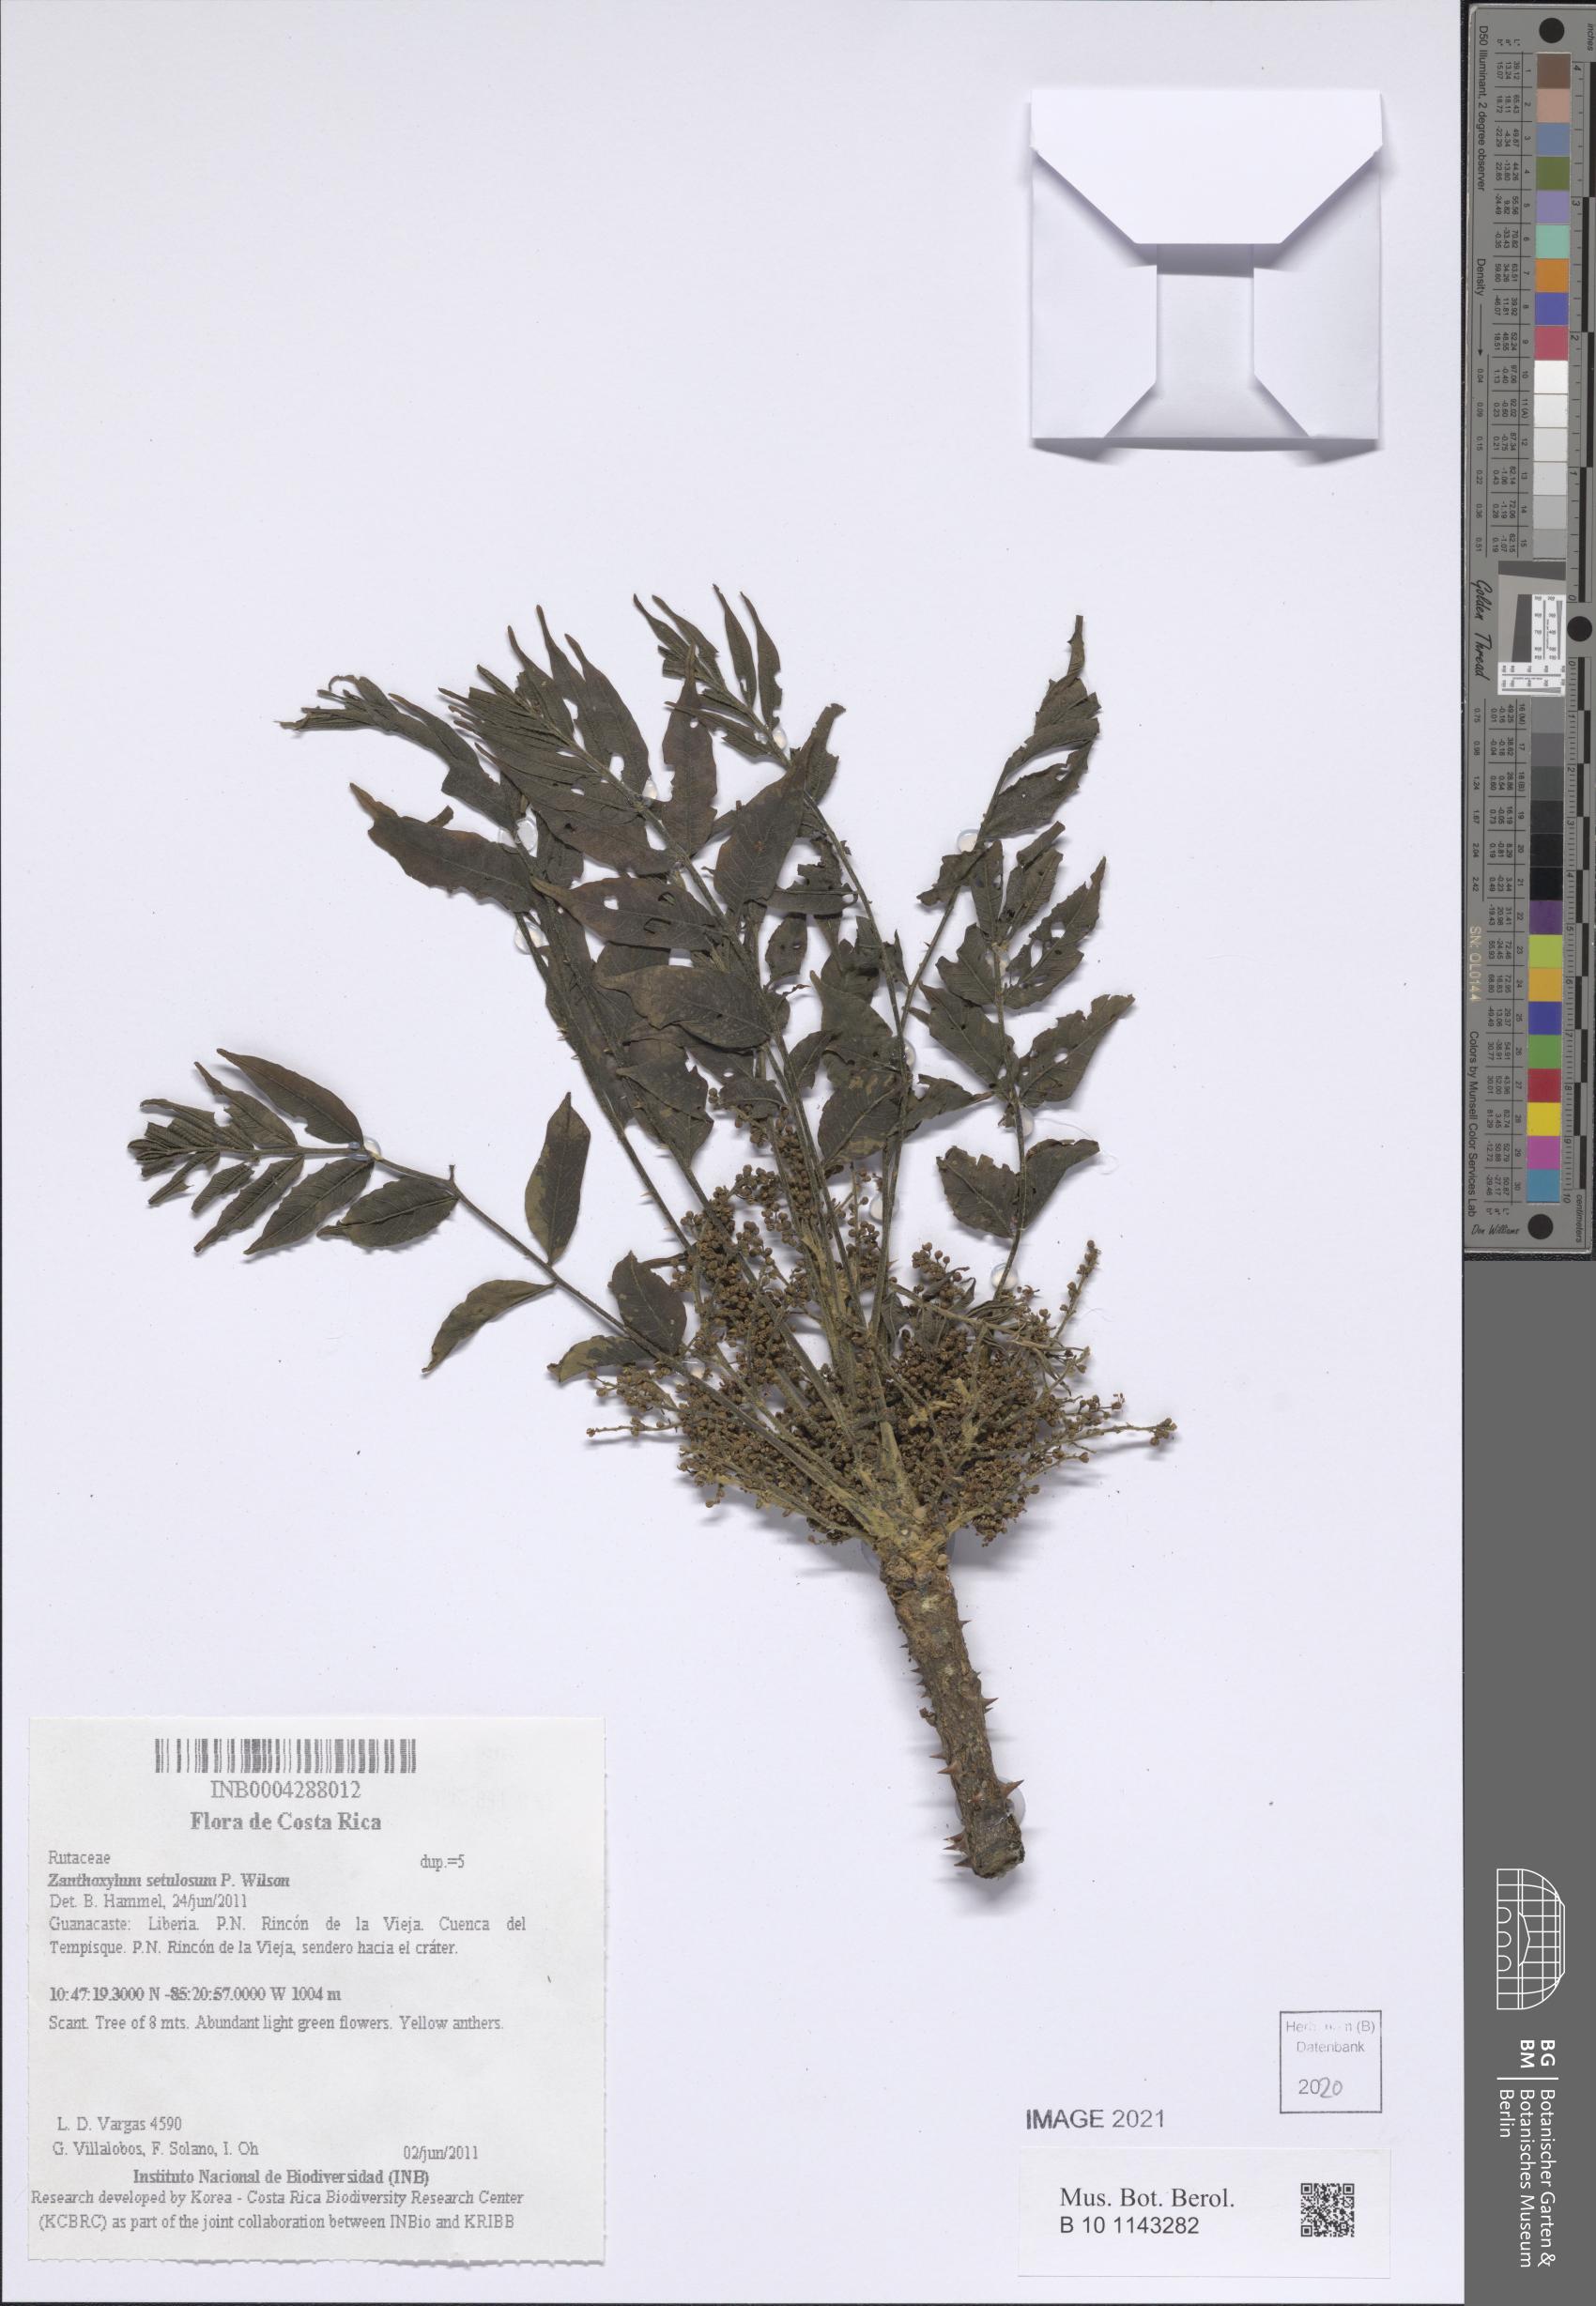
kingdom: Plantae
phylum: Tracheophyta
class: Magnoliopsida
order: Sapindales
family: Rutaceae
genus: Zanthoxylum
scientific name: Zanthoxylum setulosum
